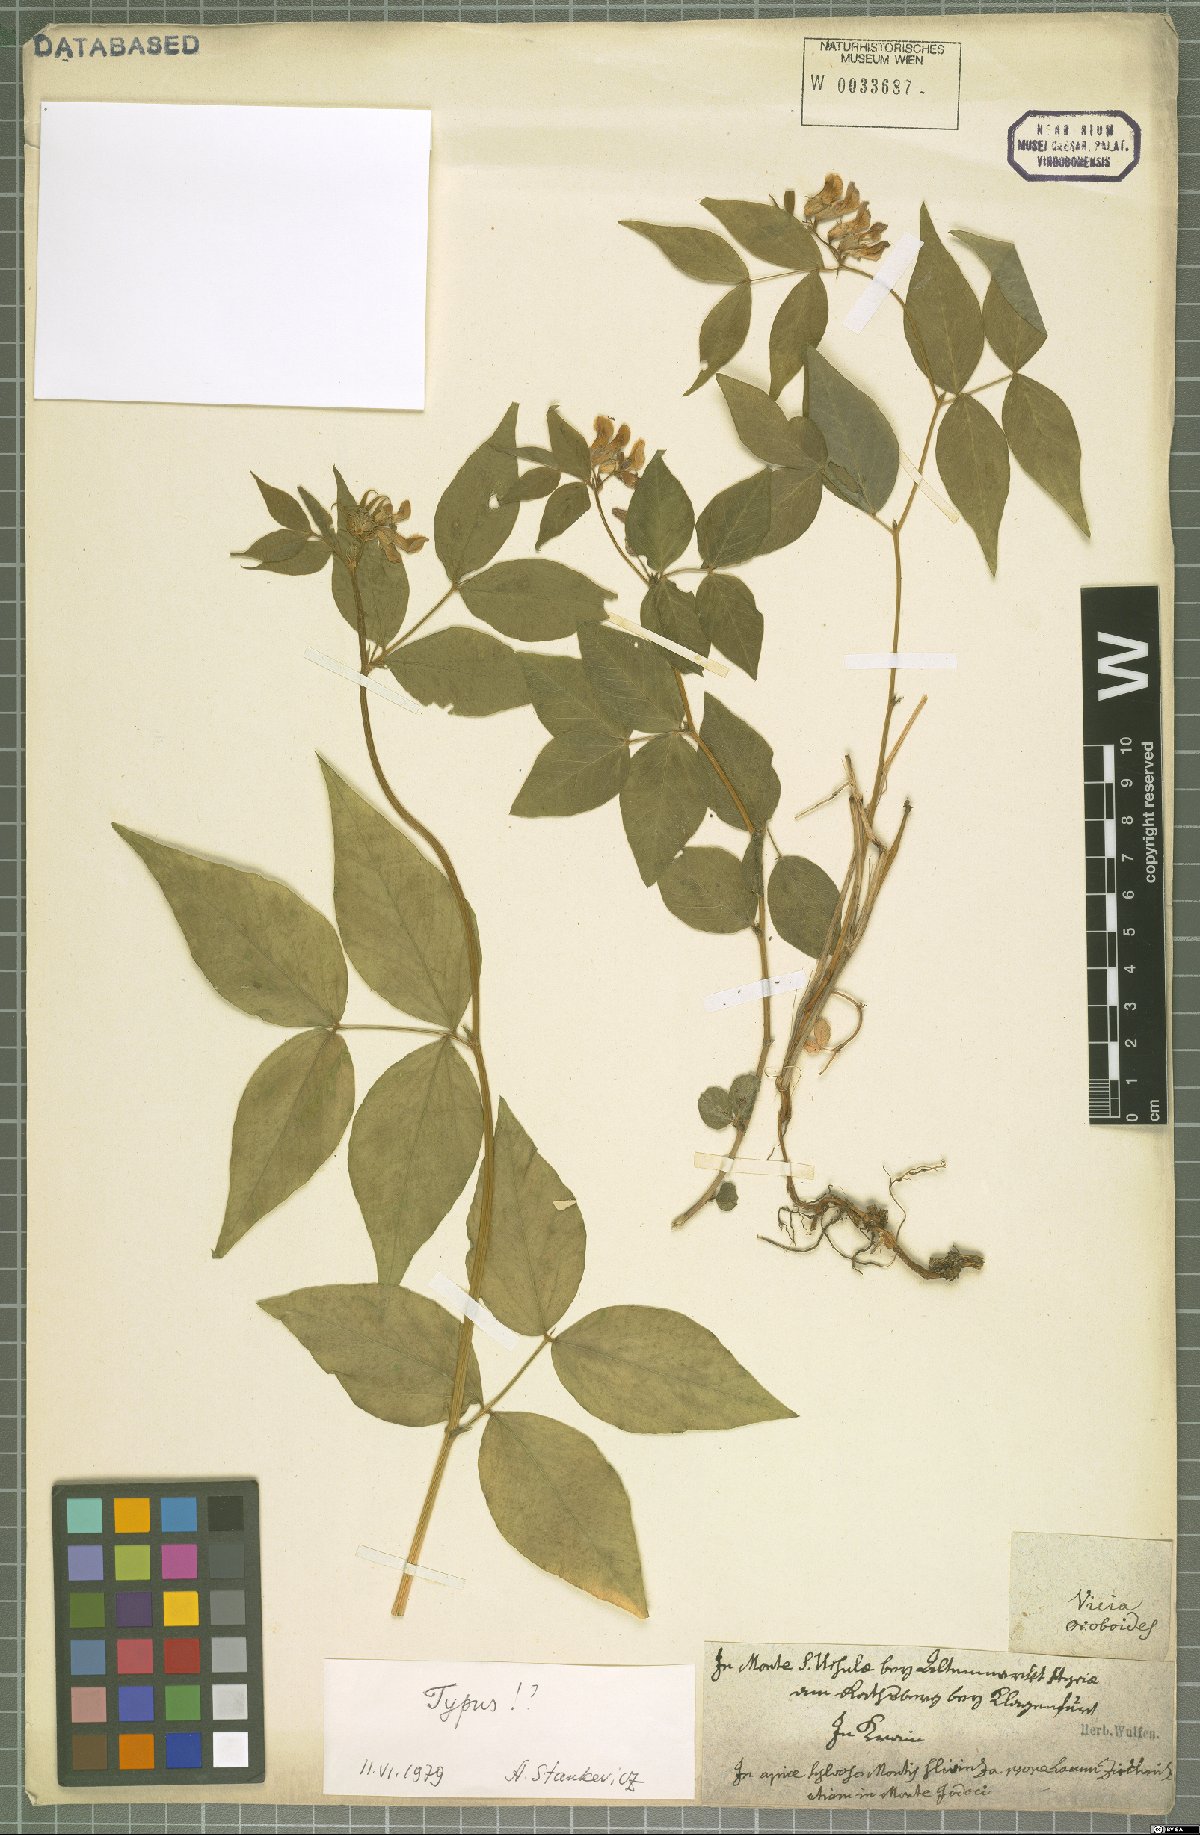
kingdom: Plantae
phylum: Tracheophyta
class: Magnoliopsida
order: Fabales
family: Fabaceae
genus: Vicia
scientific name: Vicia oroboides
